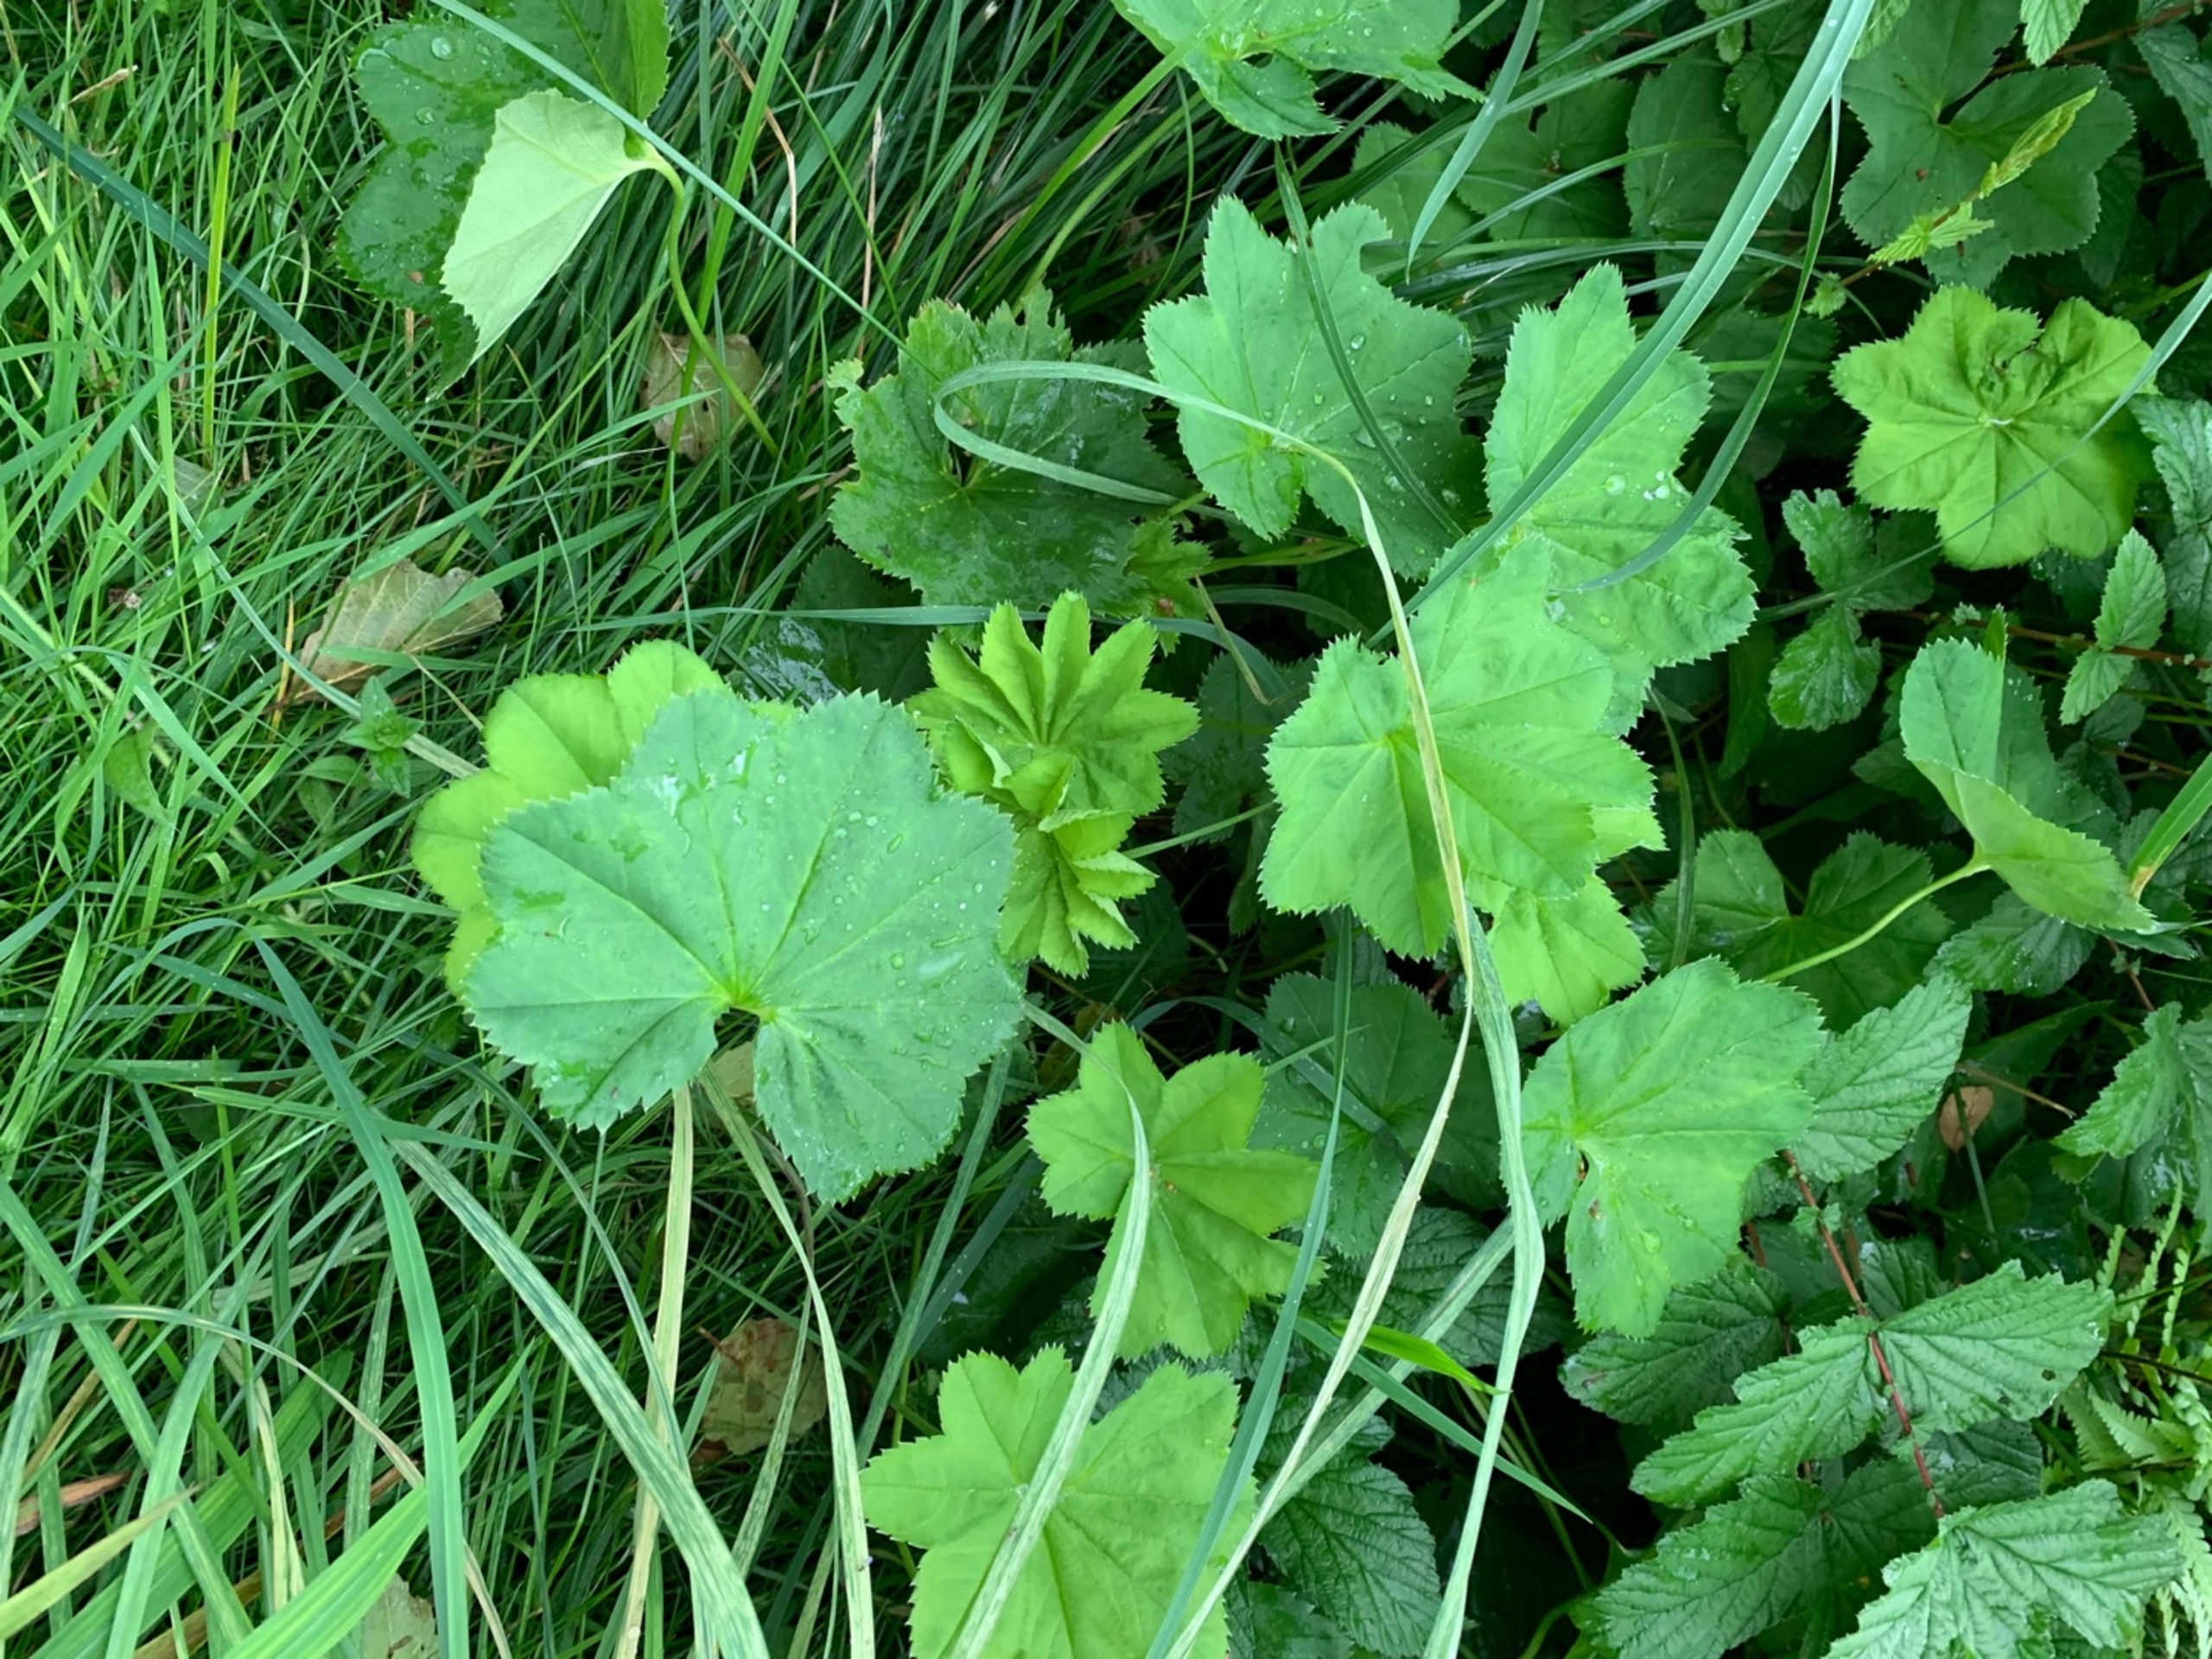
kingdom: Plantae
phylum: Tracheophyta
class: Magnoliopsida
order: Rosales
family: Rosaceae
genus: Alchemilla
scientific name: Alchemilla glabra
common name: Glat løvefod
